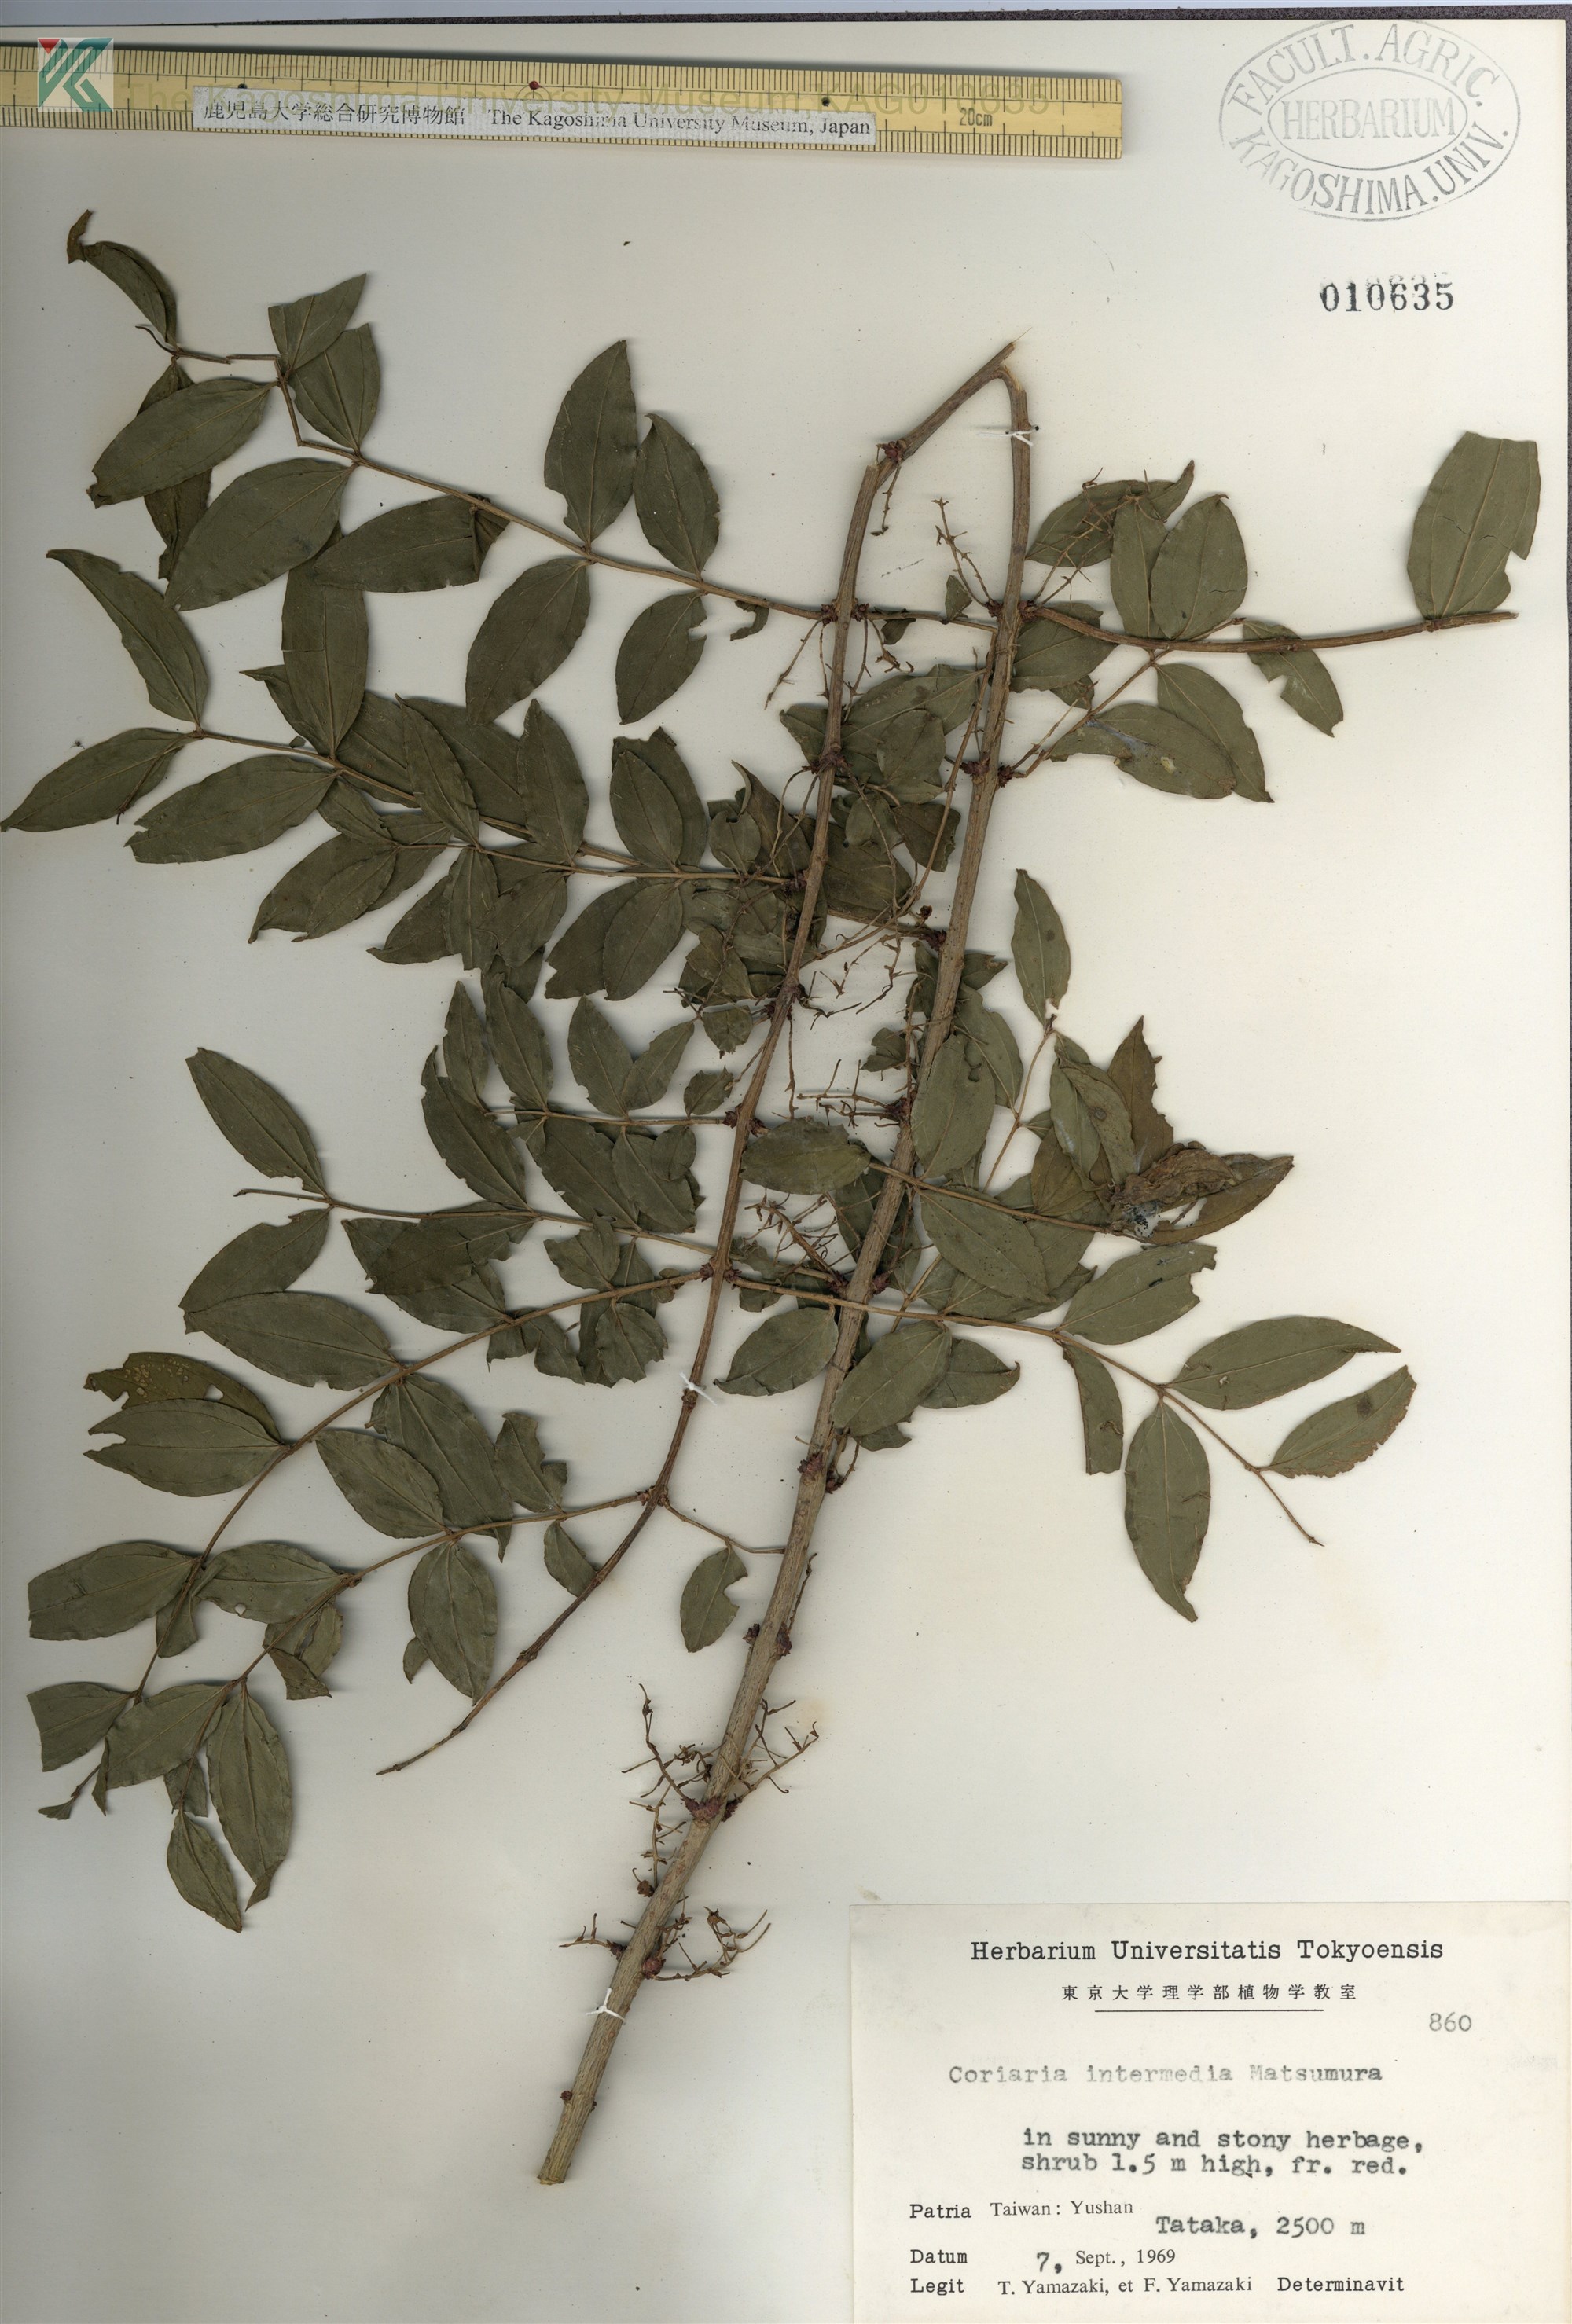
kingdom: Plantae
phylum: Tracheophyta
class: Magnoliopsida
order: Cucurbitales
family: Coriariaceae
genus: Coriaria
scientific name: Coriaria japonica
